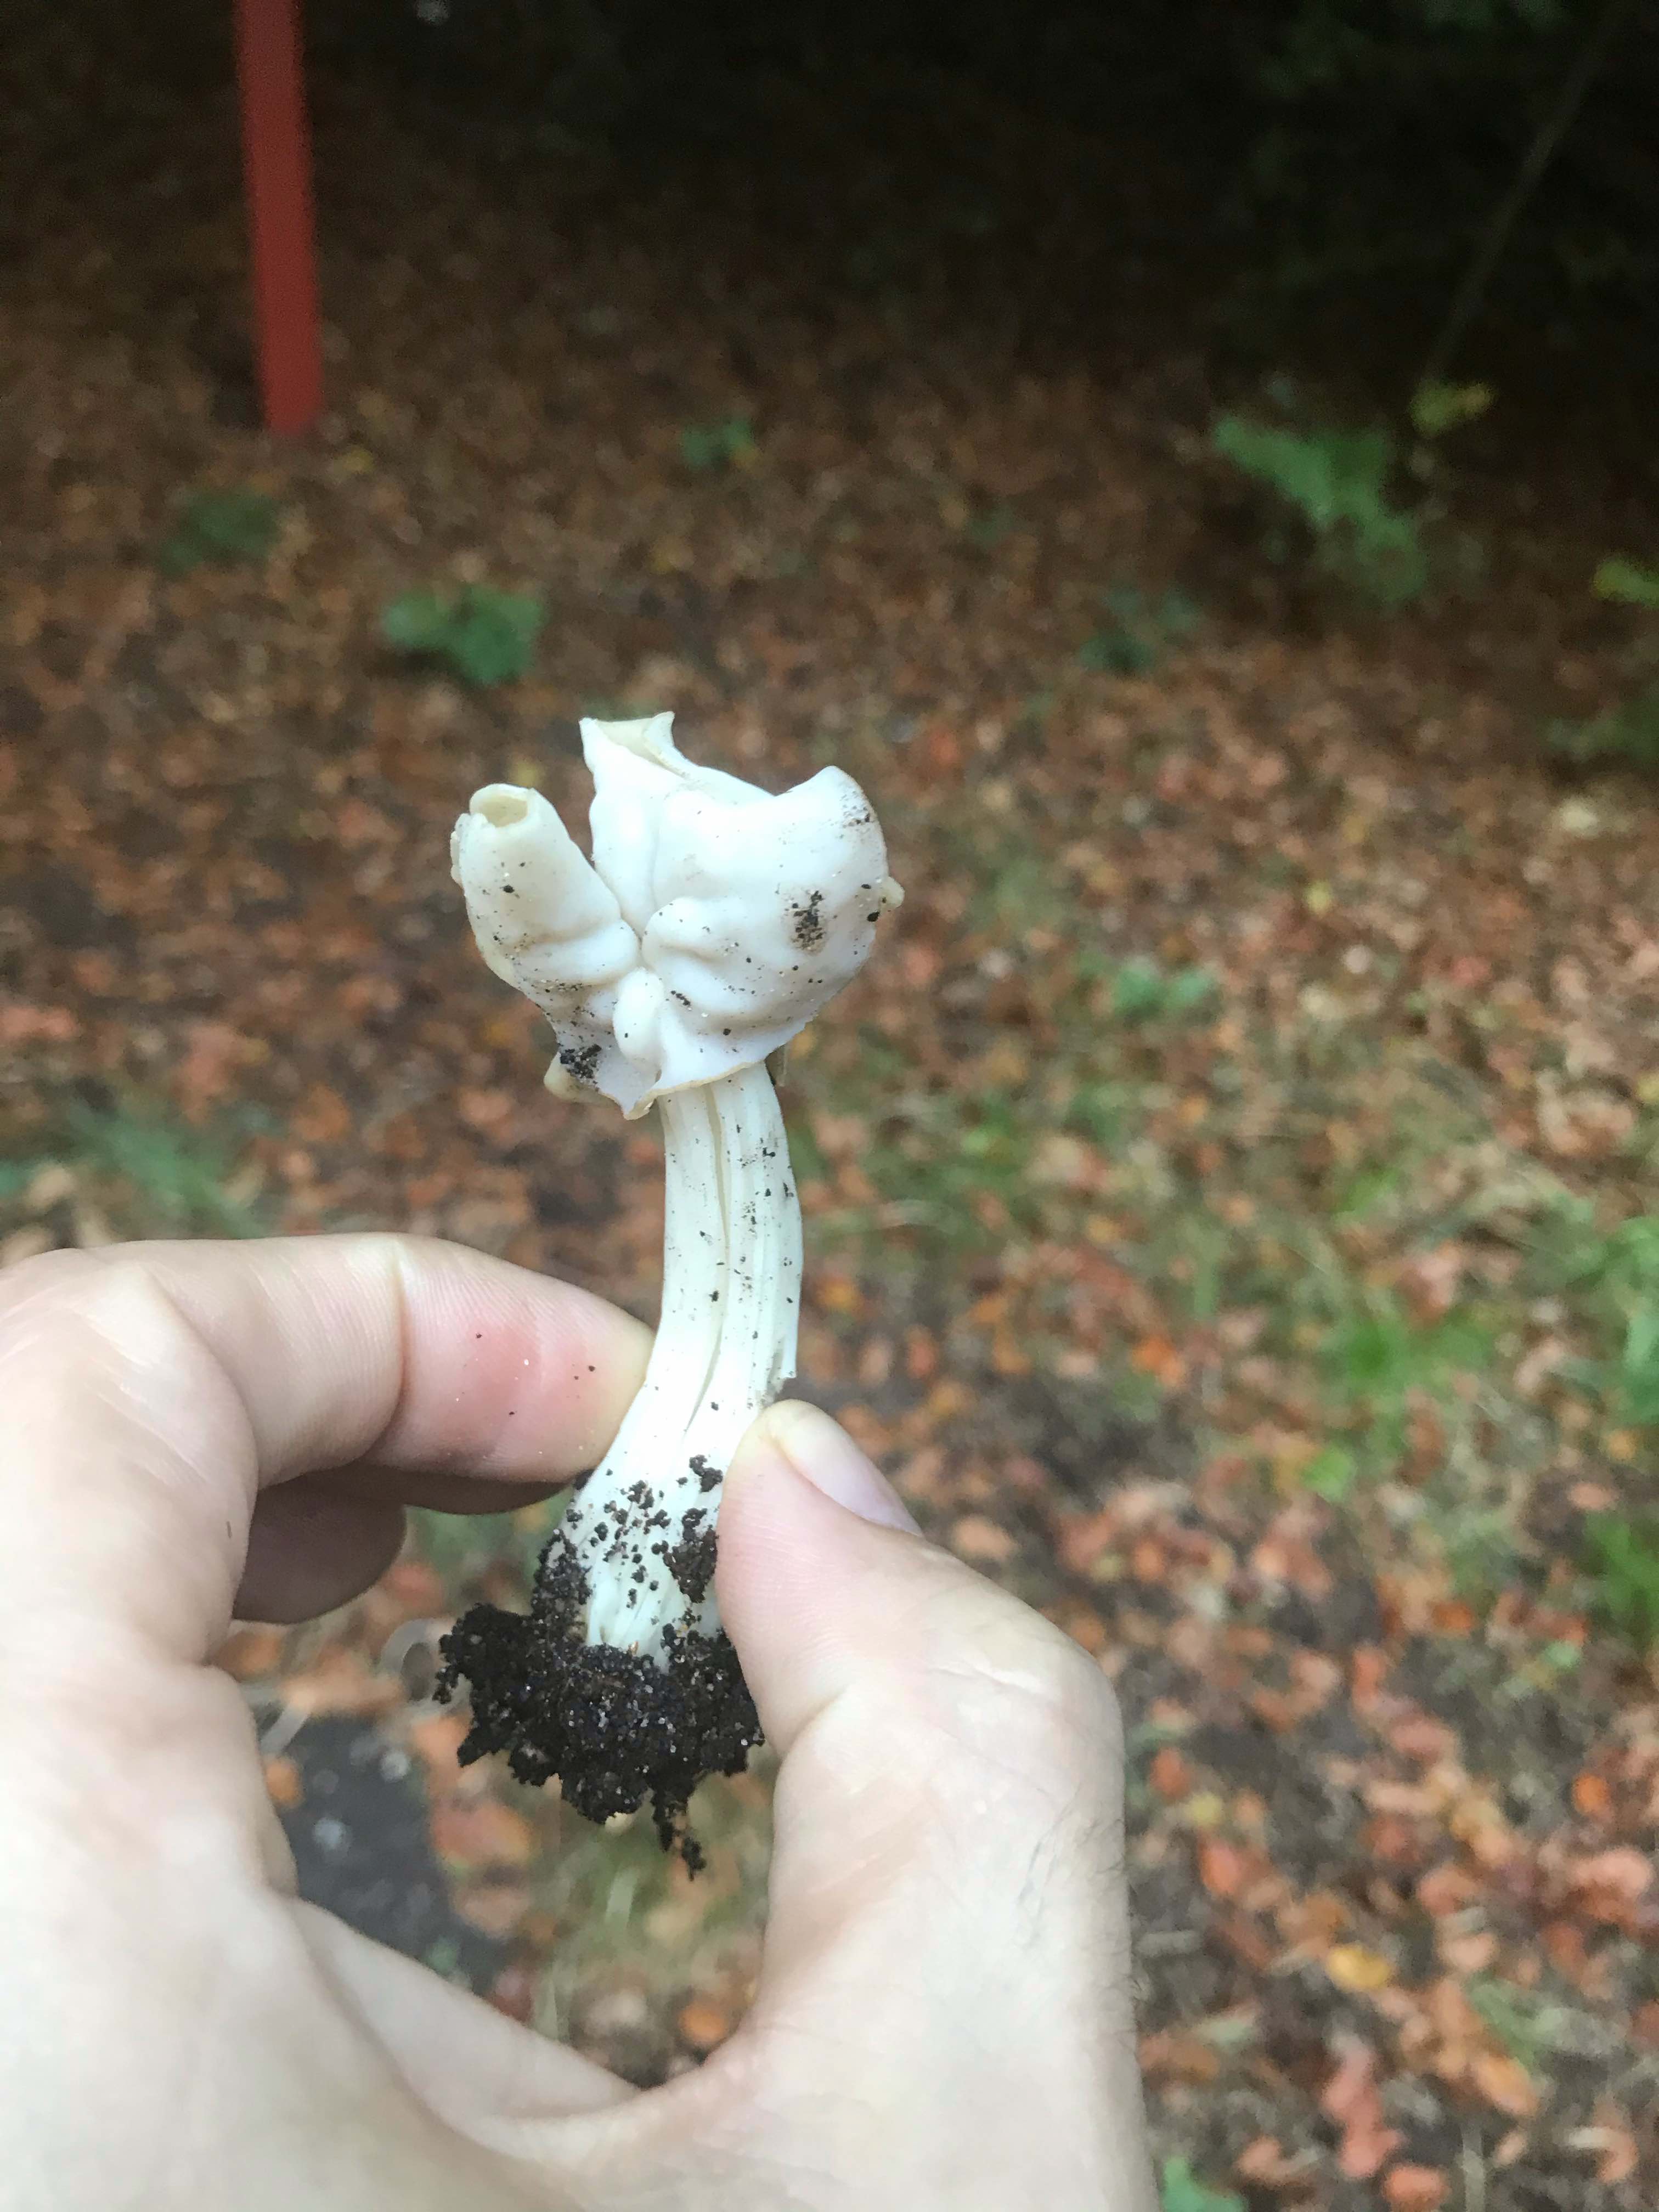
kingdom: Fungi
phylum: Ascomycota
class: Pezizomycetes
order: Pezizales
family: Helvellaceae
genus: Helvella
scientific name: Helvella crispa
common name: kruset foldhat
